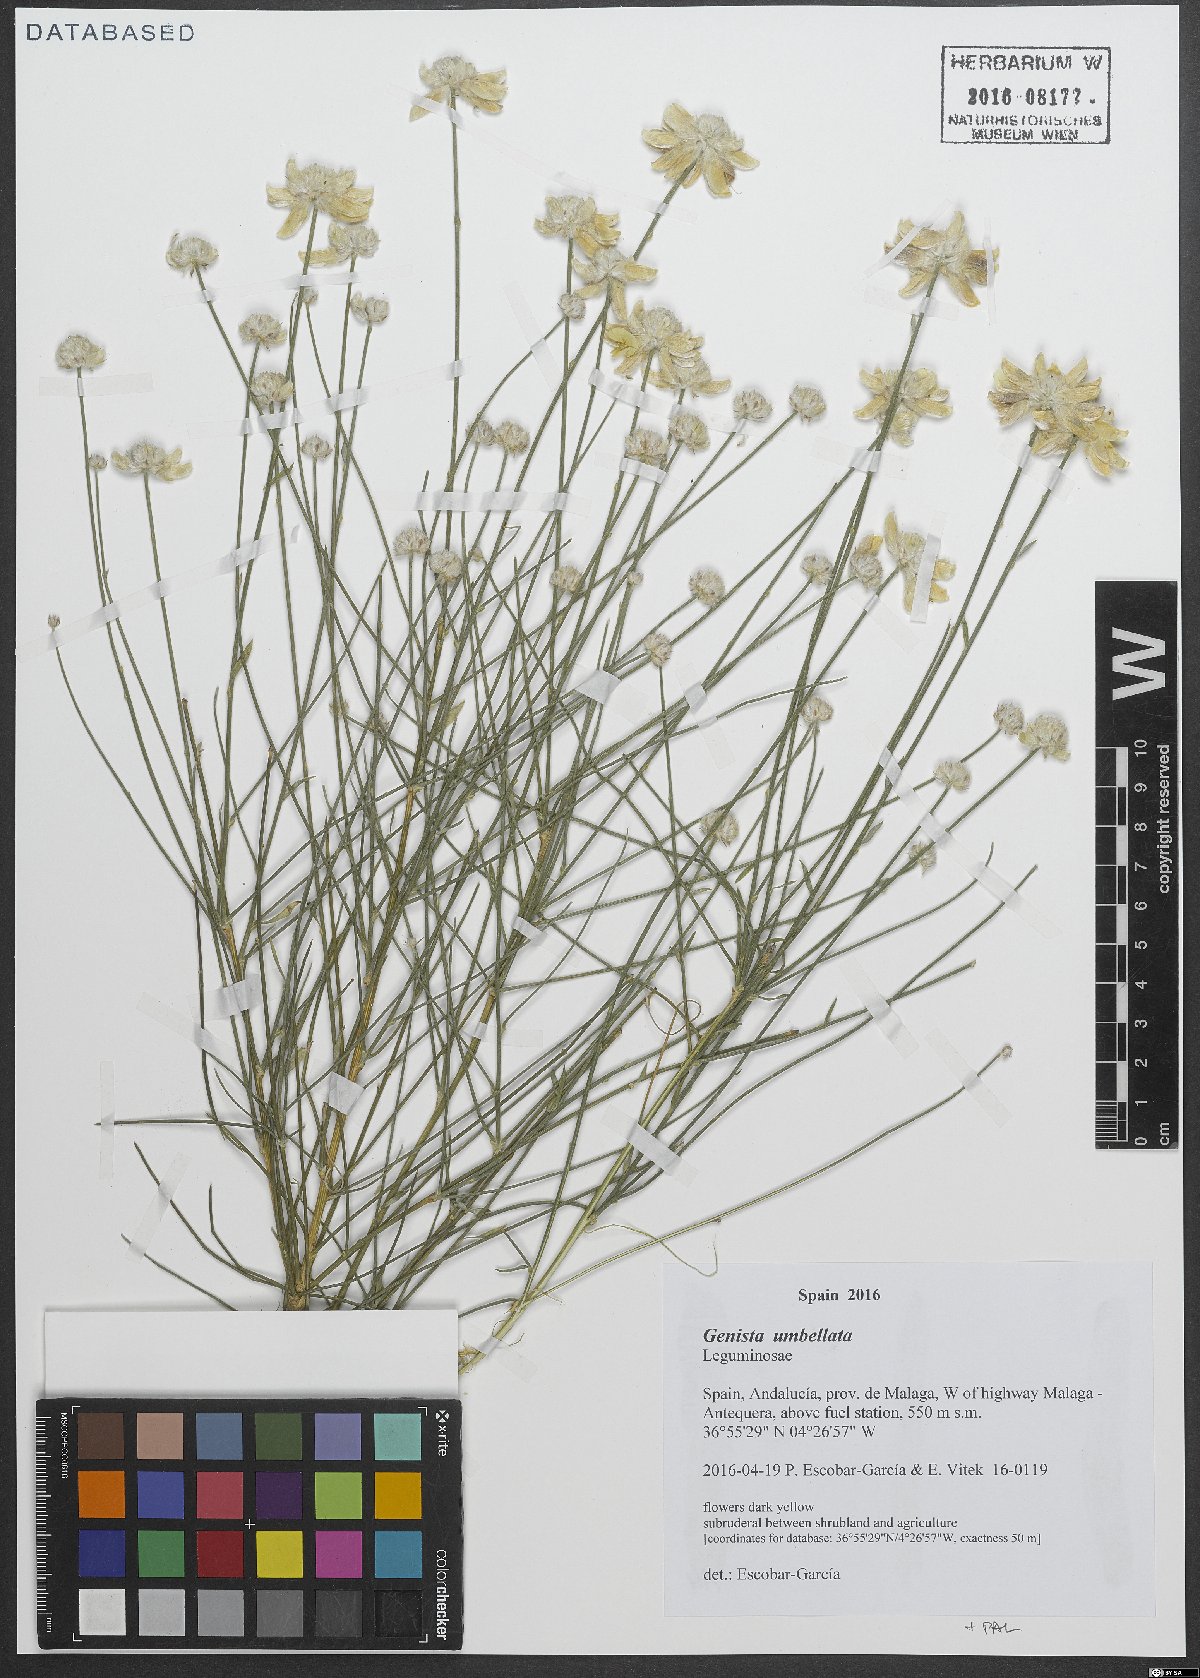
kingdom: Plantae
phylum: Tracheophyta
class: Magnoliopsida
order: Fabales
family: Fabaceae
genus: Genista
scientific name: Genista umbellata
